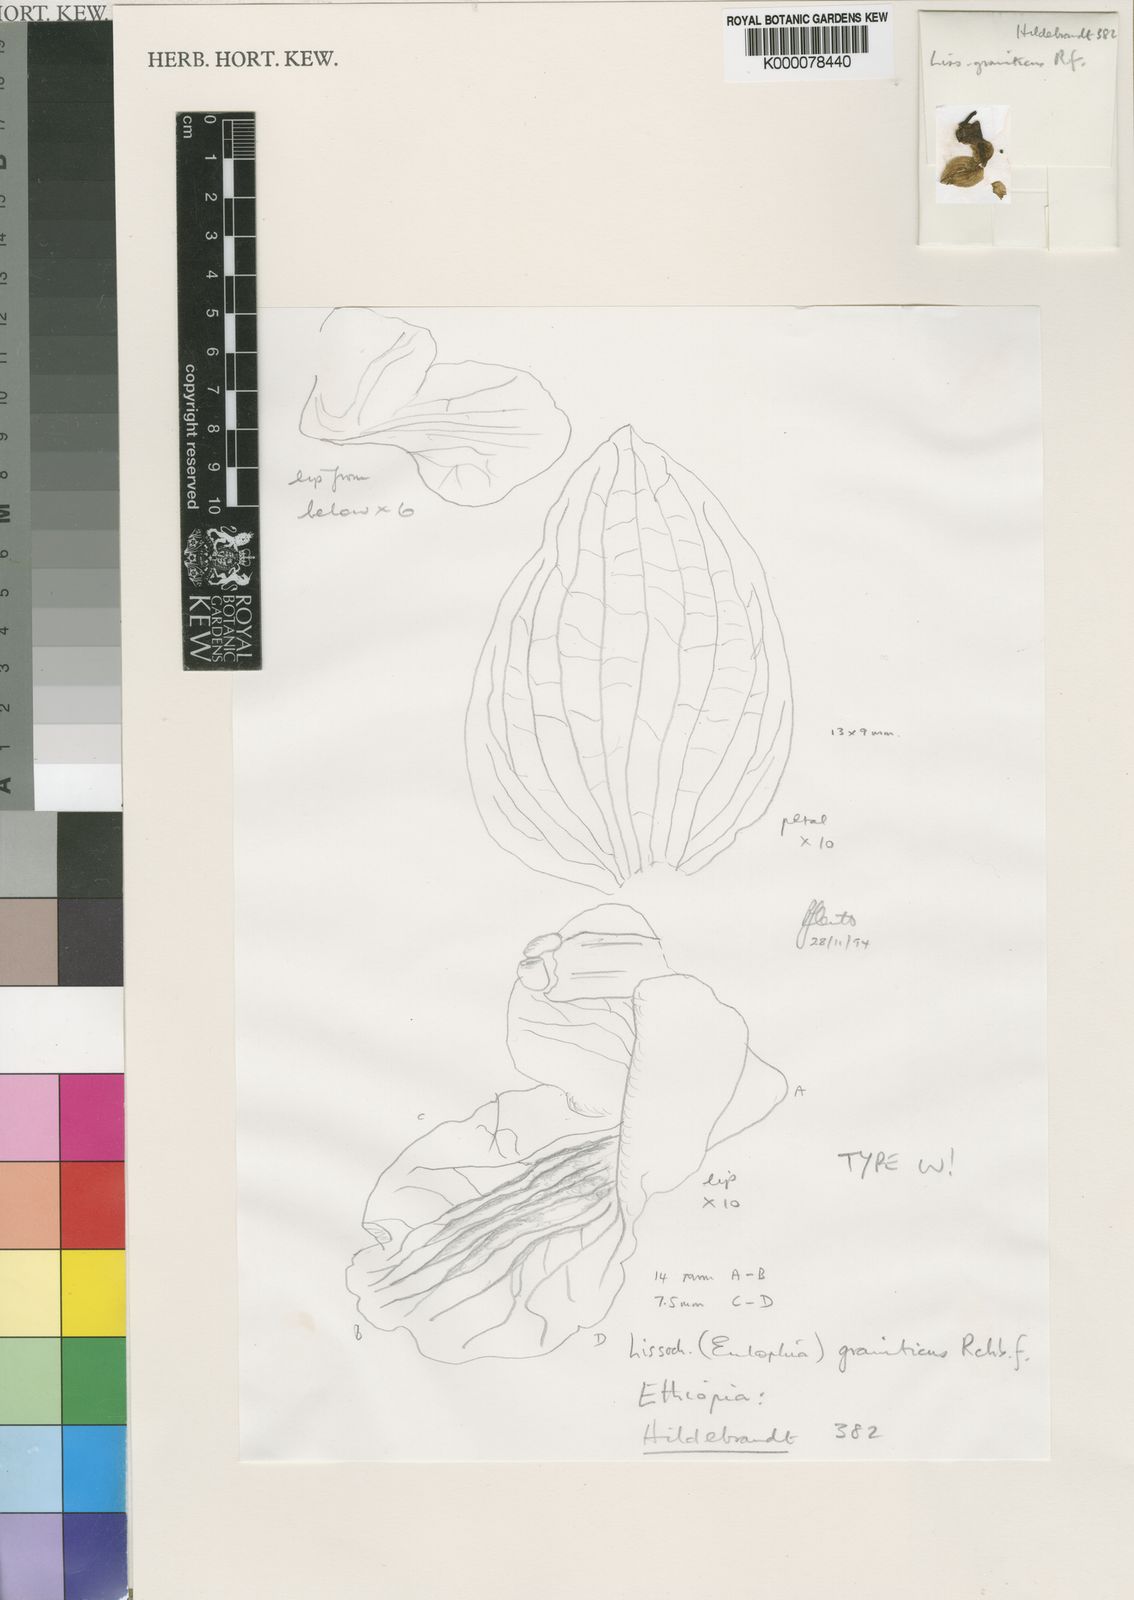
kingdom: Plantae
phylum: Tracheophyta
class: Liliopsida
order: Asparagales
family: Orchidaceae
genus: Eulophia
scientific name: Eulophia speciosa
